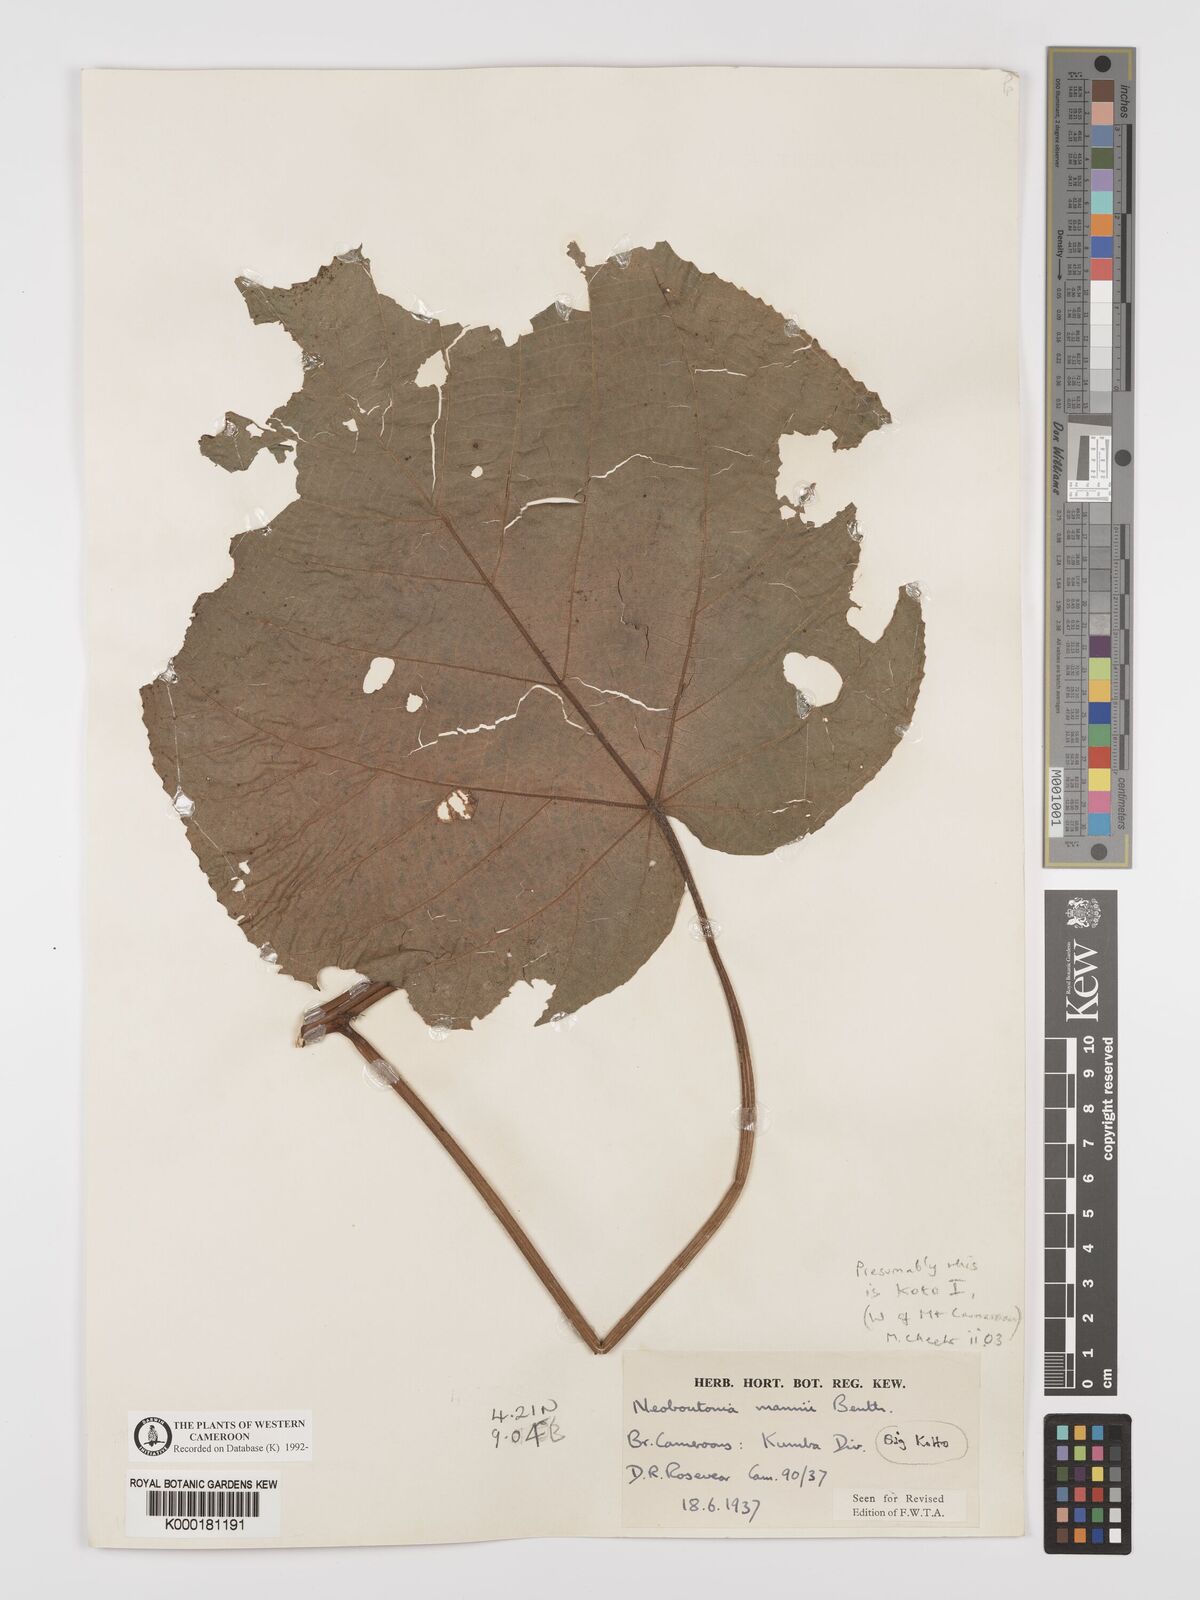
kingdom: Plantae
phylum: Tracheophyta
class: Magnoliopsida
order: Malpighiales
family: Euphorbiaceae
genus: Neoboutonia
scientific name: Neoboutonia mannii
